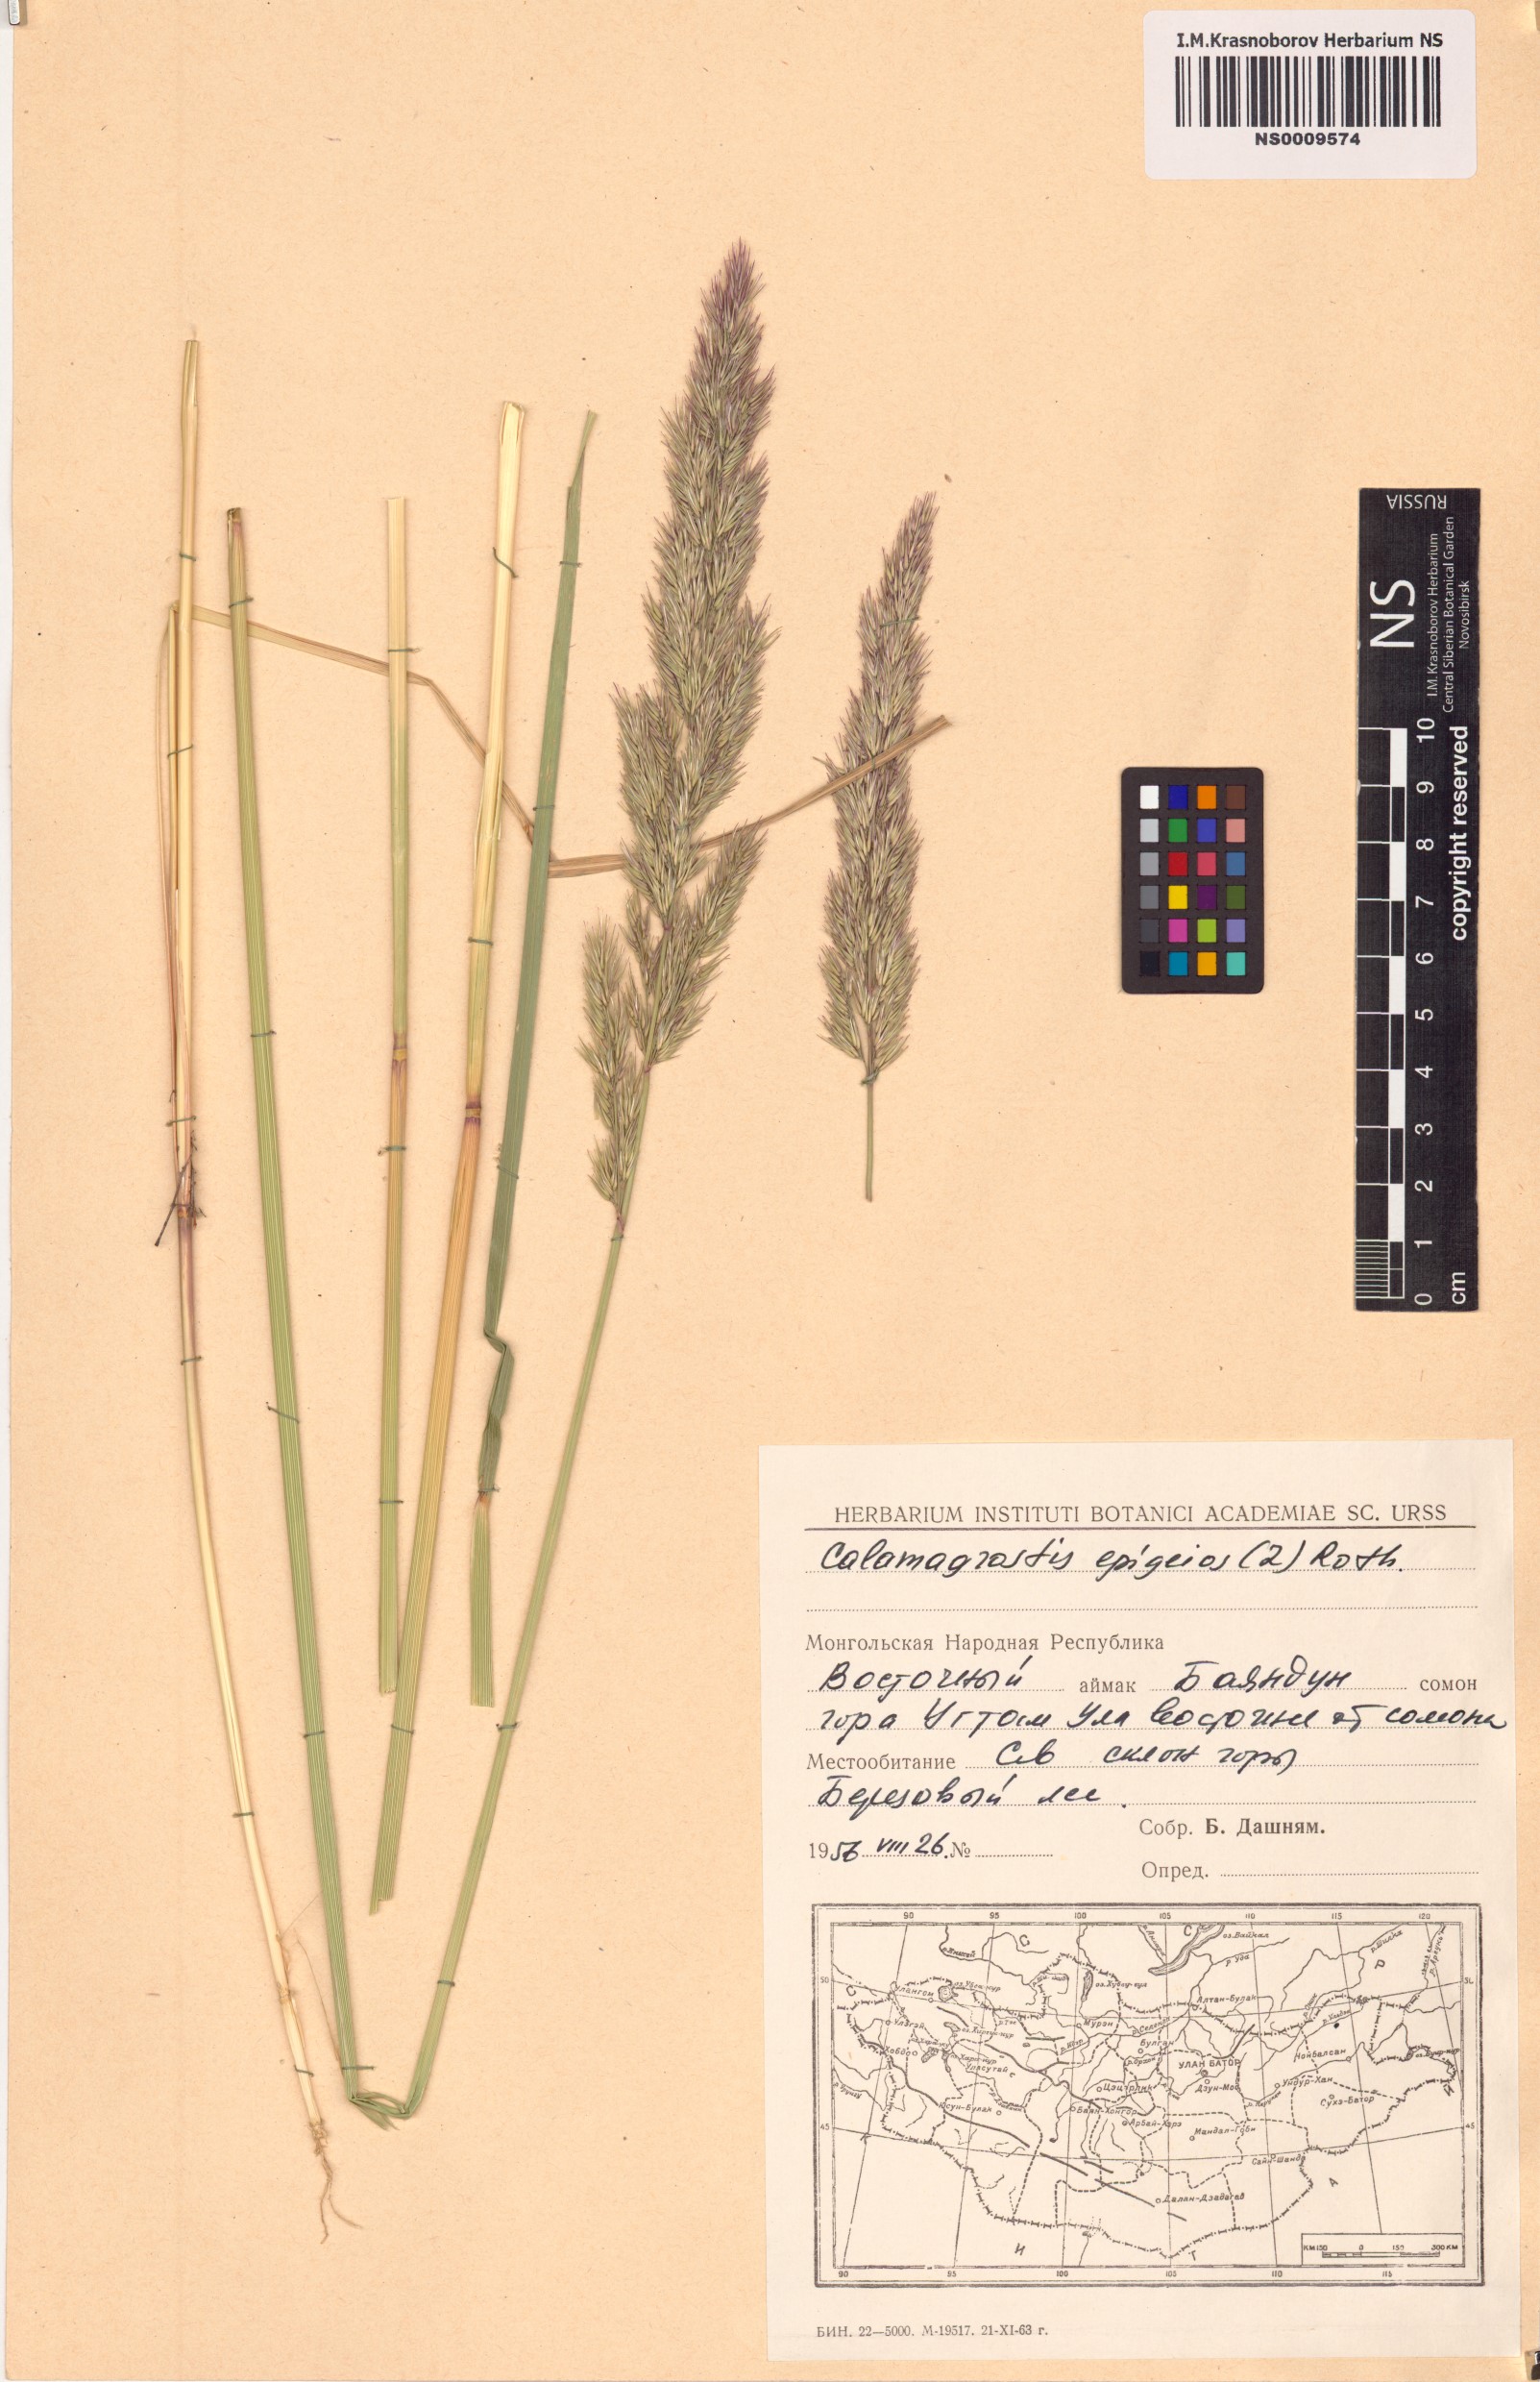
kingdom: Plantae
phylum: Tracheophyta
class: Liliopsida
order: Poales
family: Poaceae
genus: Calamagrostis
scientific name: Calamagrostis epigejos
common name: Wood small-reed
